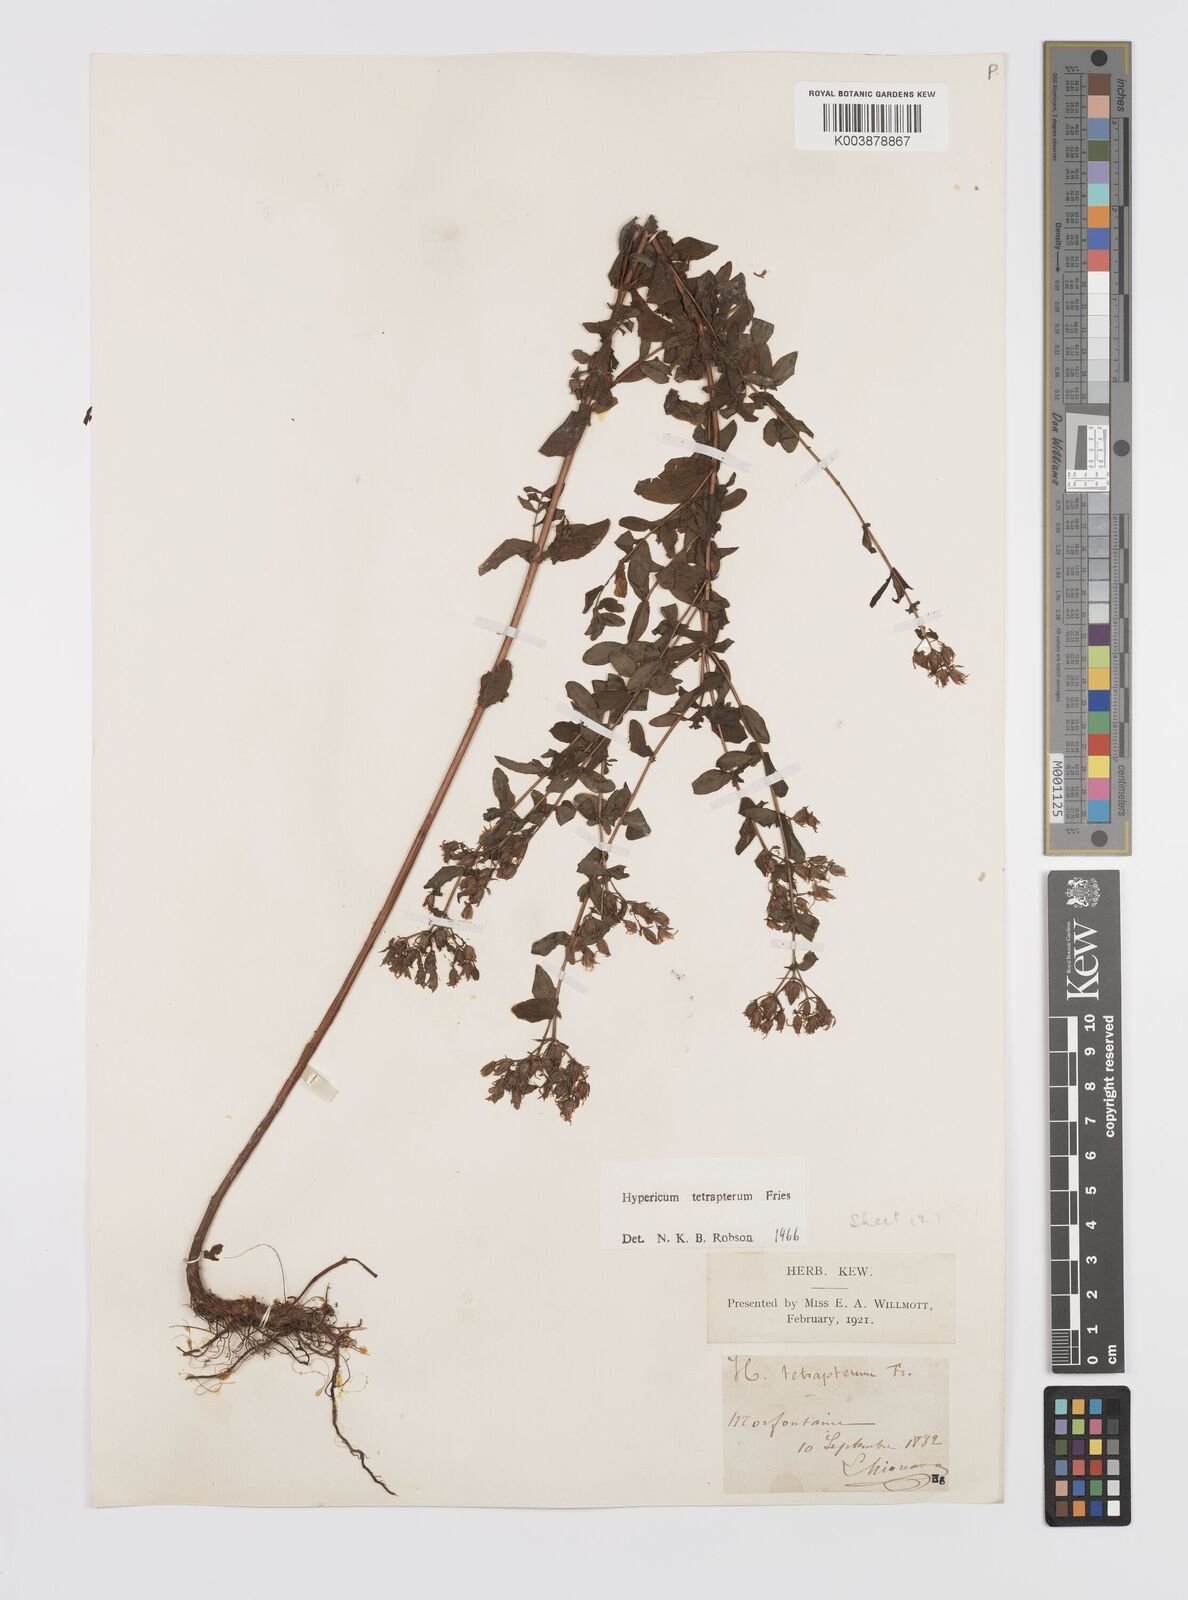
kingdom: Plantae
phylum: Tracheophyta
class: Magnoliopsida
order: Malpighiales
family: Hypericaceae
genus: Hypericum
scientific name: Hypericum tetrapterum
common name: Square-stalked st. john's-wort
